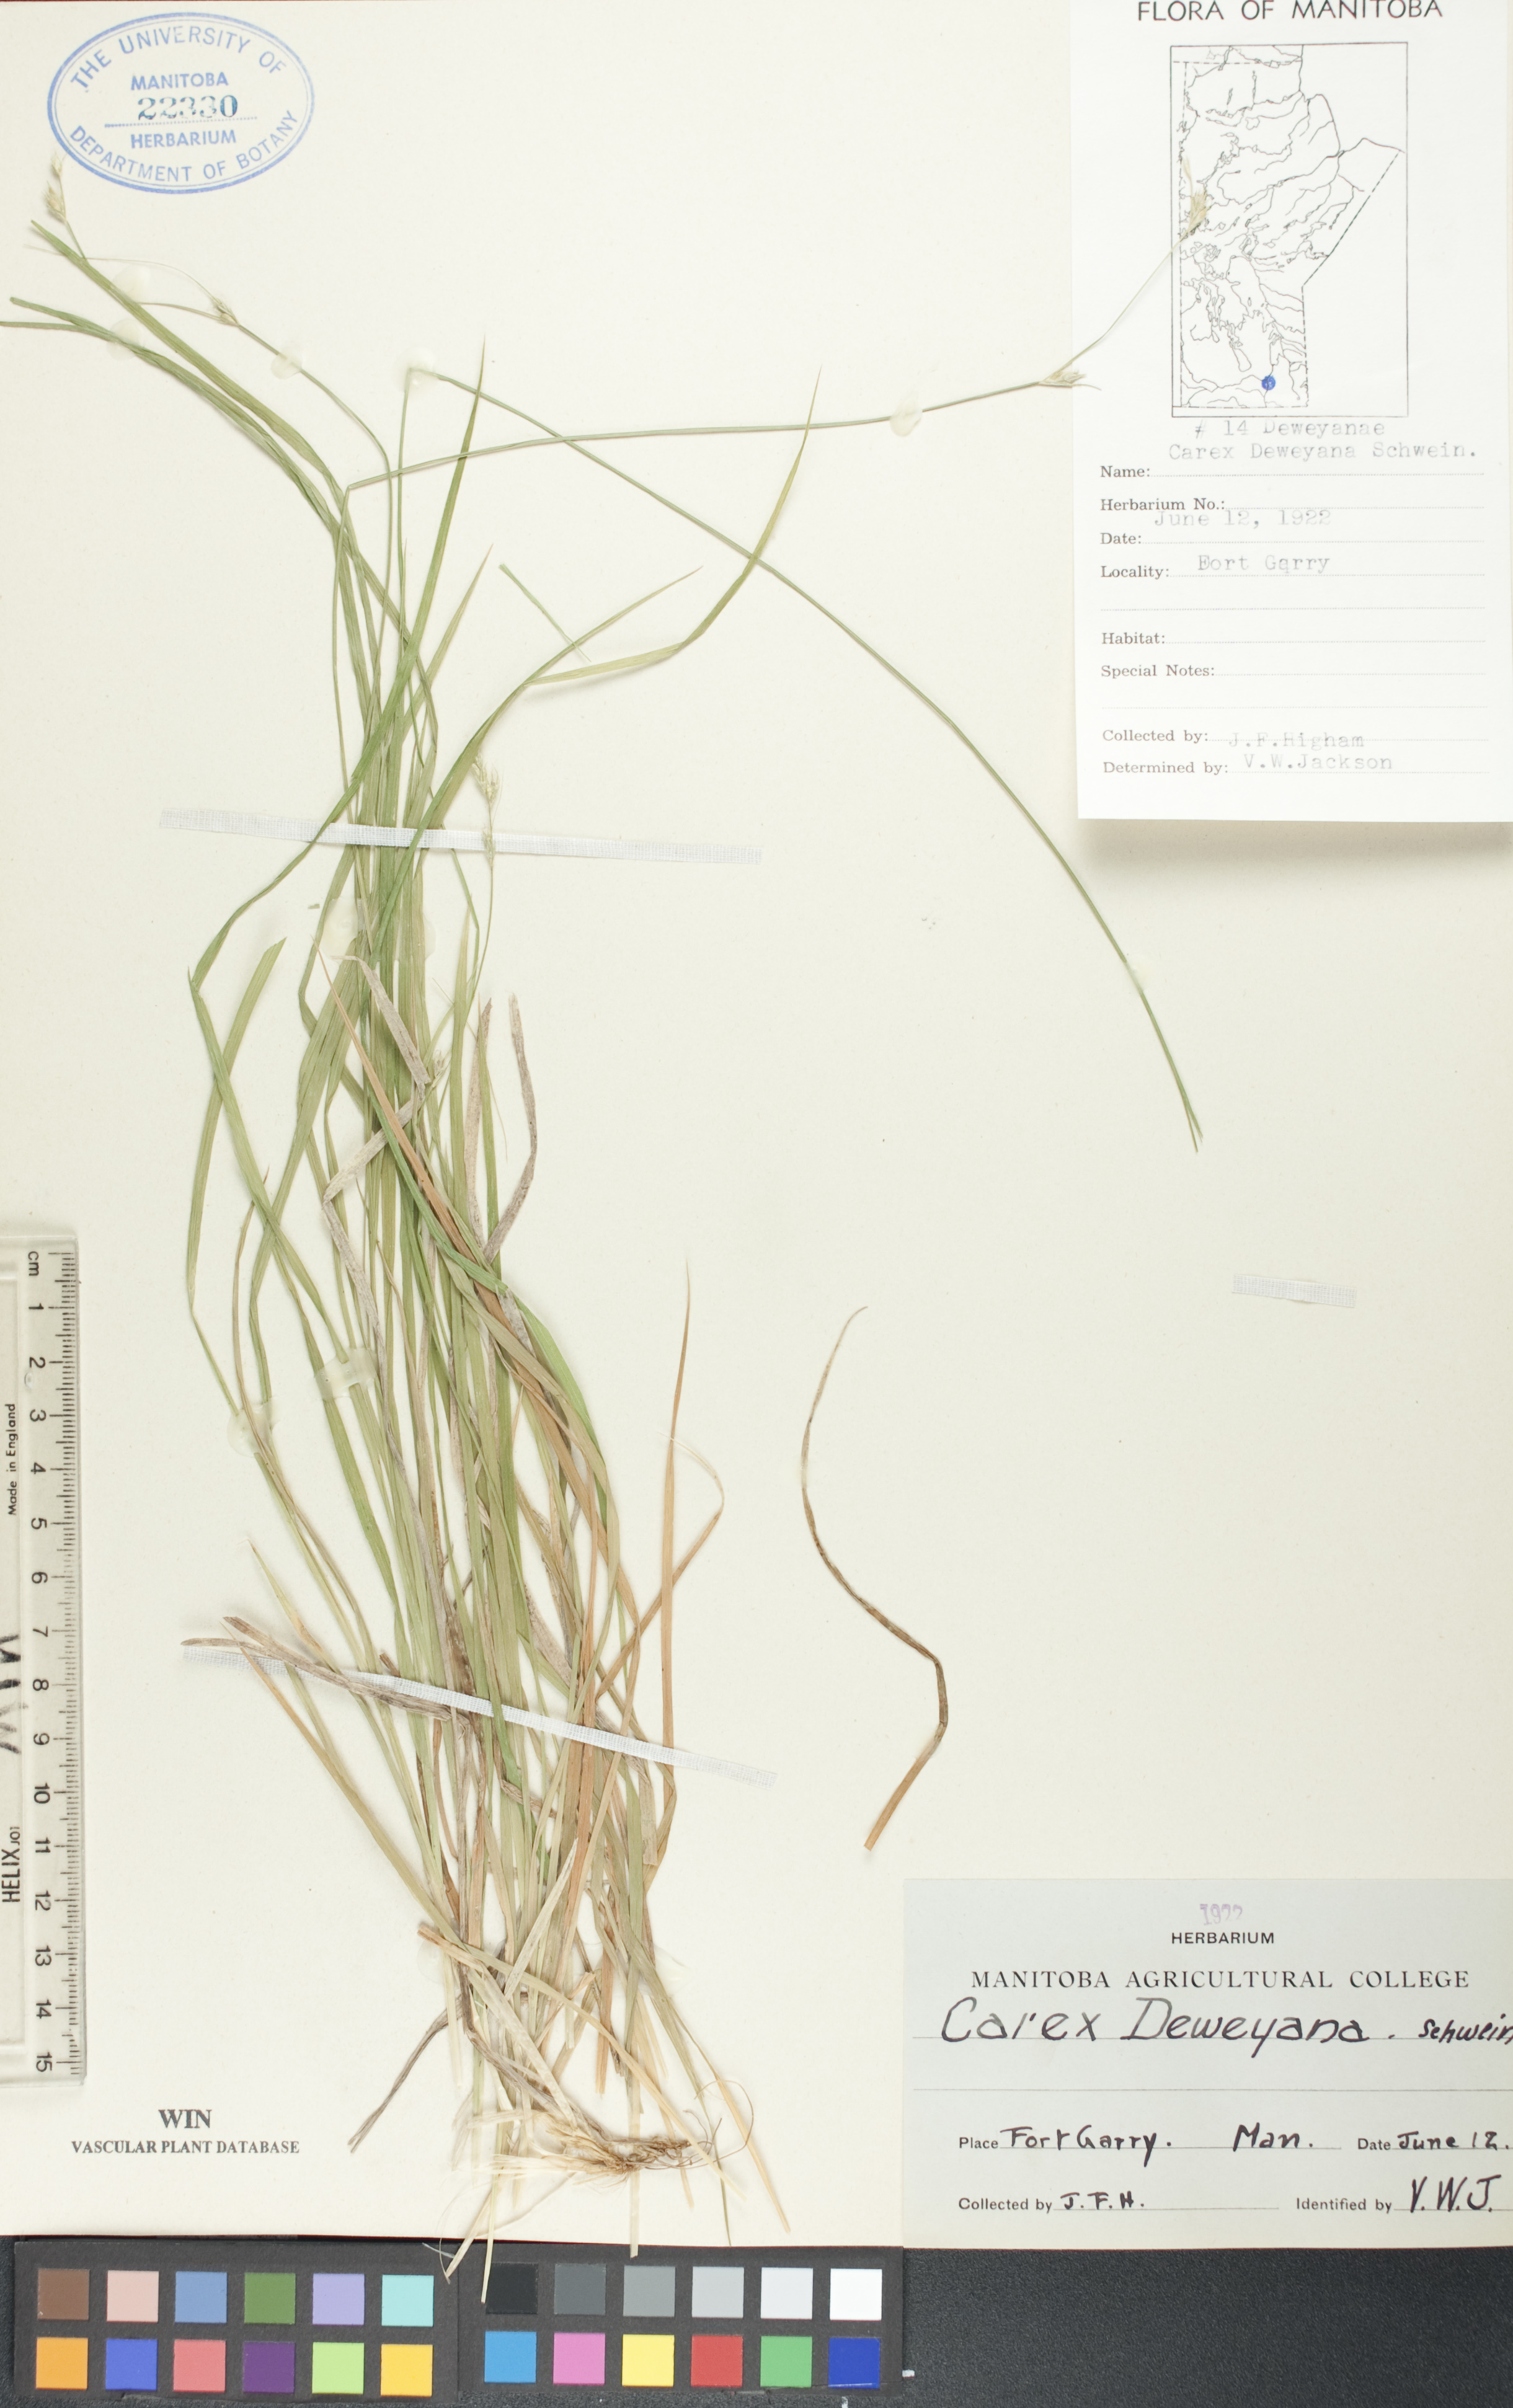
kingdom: Plantae
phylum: Tracheophyta
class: Liliopsida
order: Poales
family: Cyperaceae
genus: Carex
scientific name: Carex deweyana
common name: Dewey's sedge
